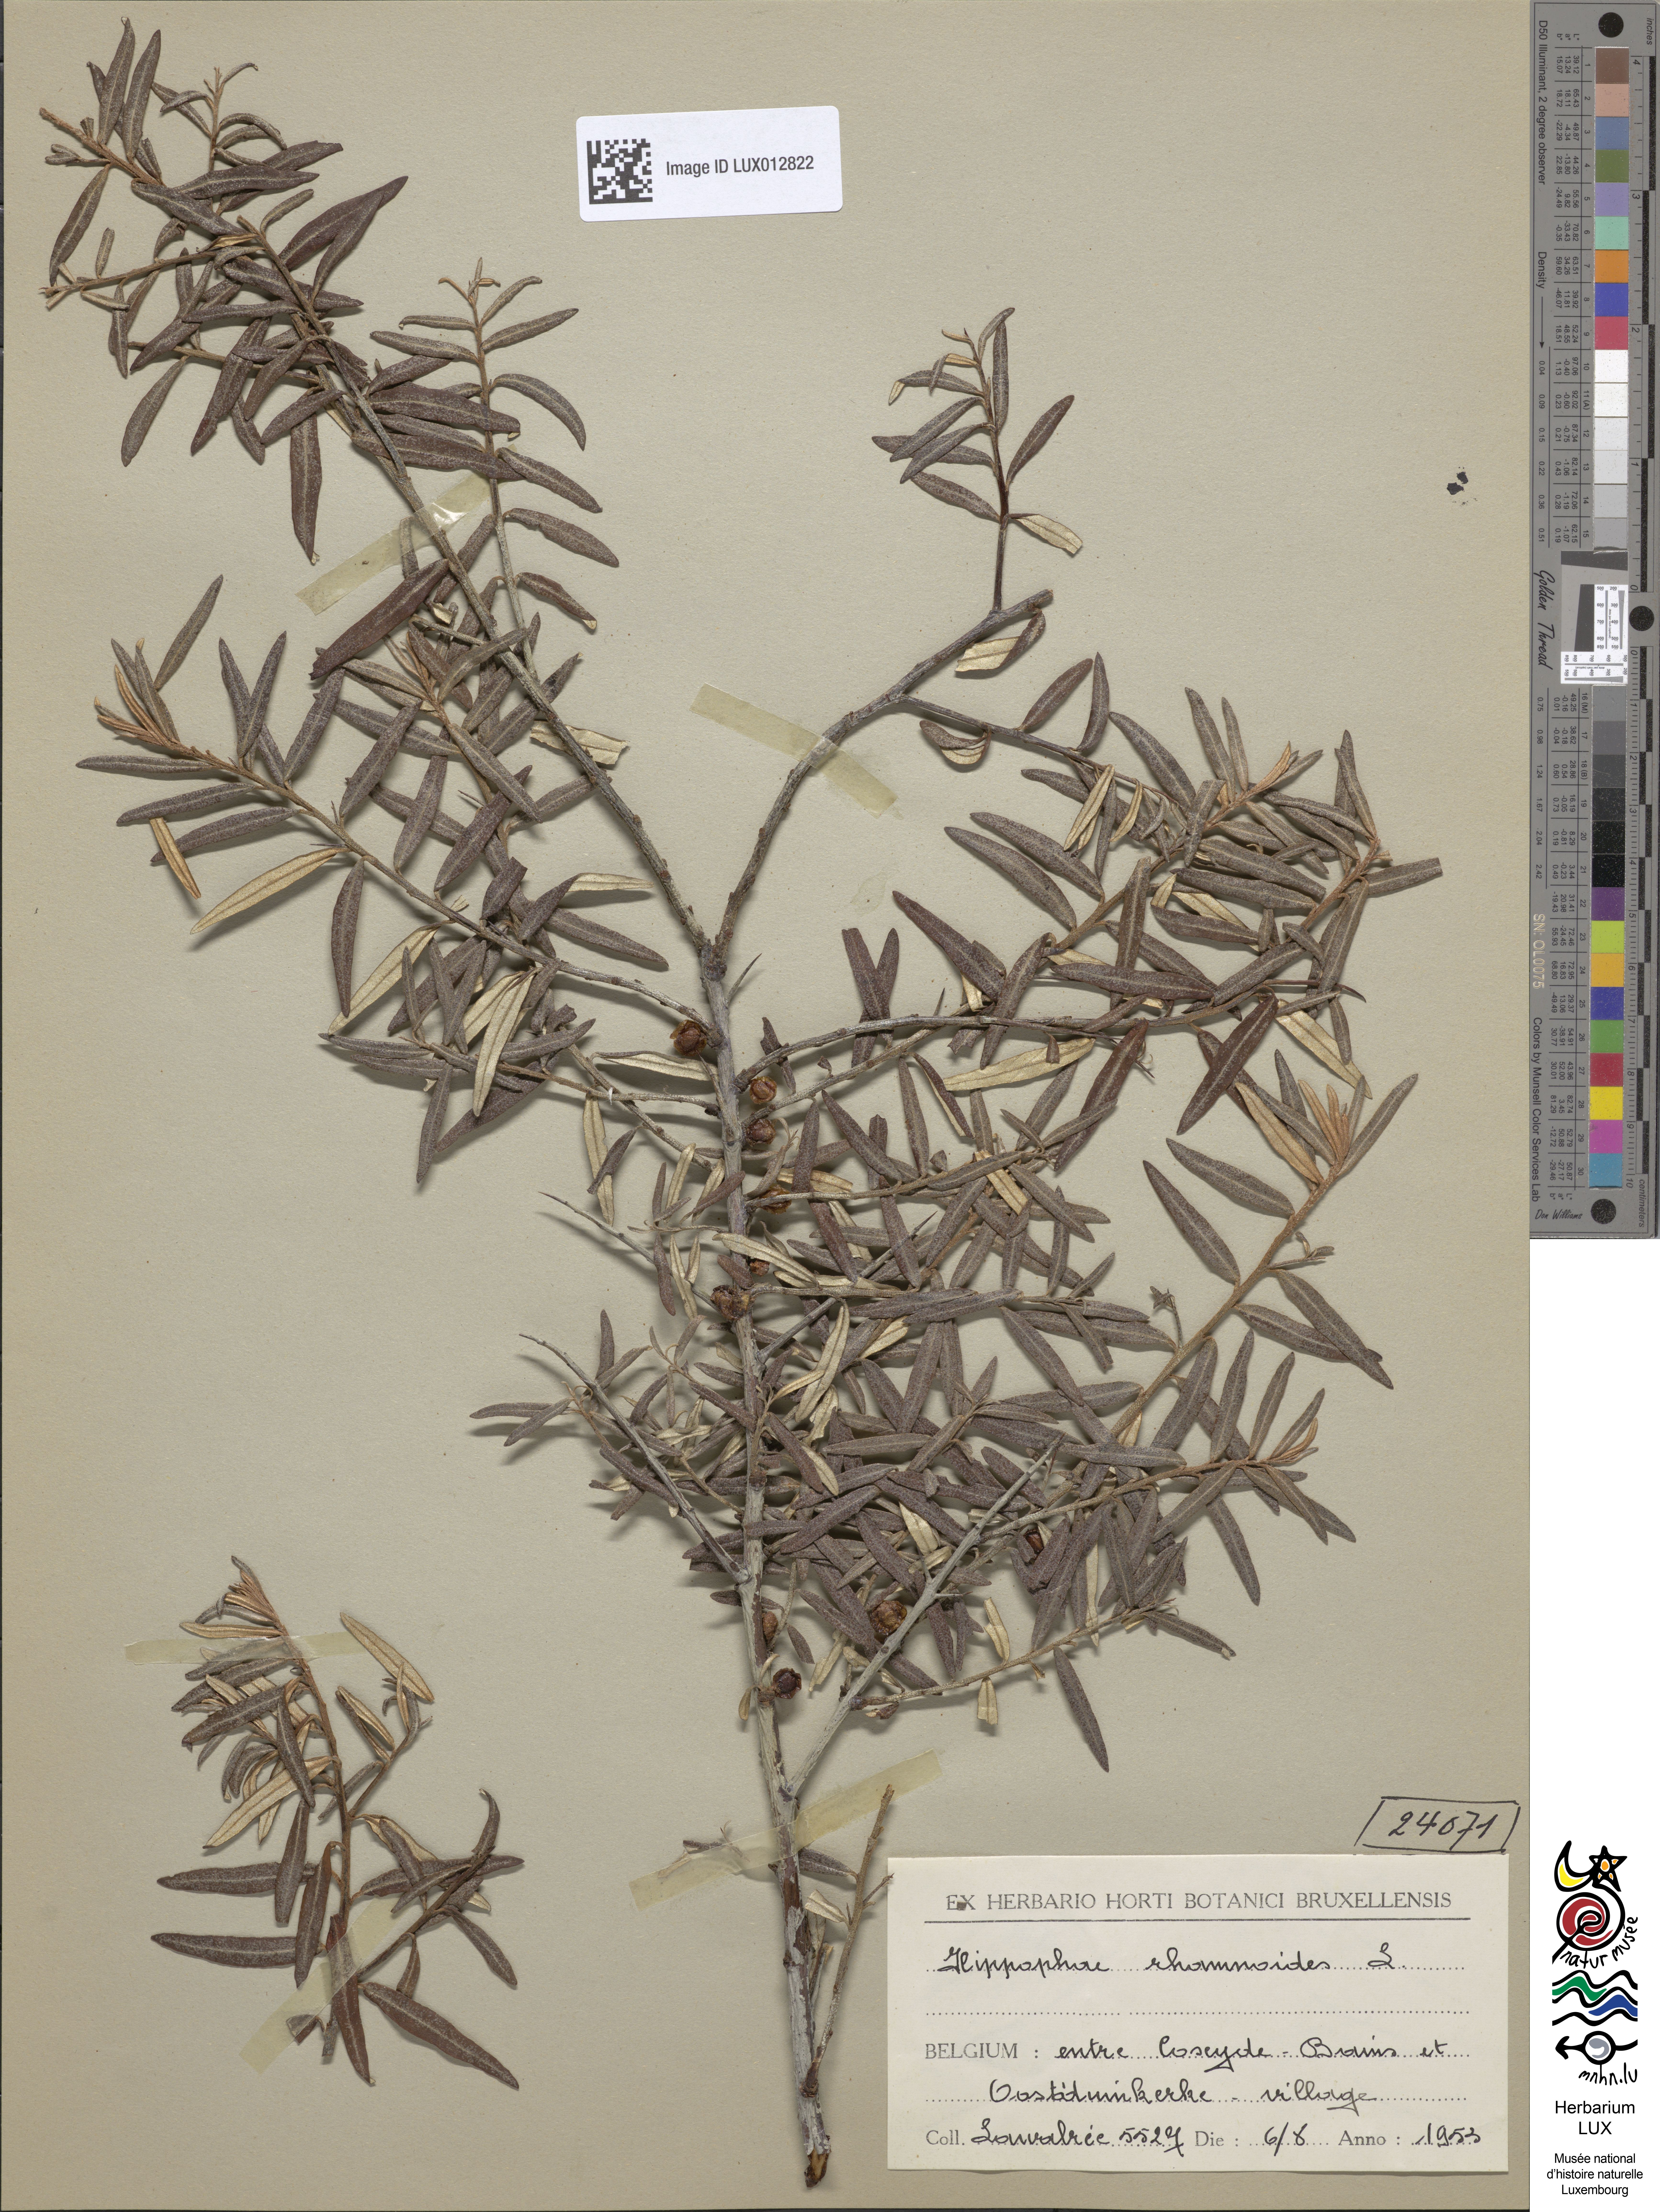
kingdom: Plantae
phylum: Tracheophyta
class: Magnoliopsida
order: Rosales
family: Elaeagnaceae
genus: Hippophae
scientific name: Hippophae rhamnoides
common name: Sea-buckthorn
